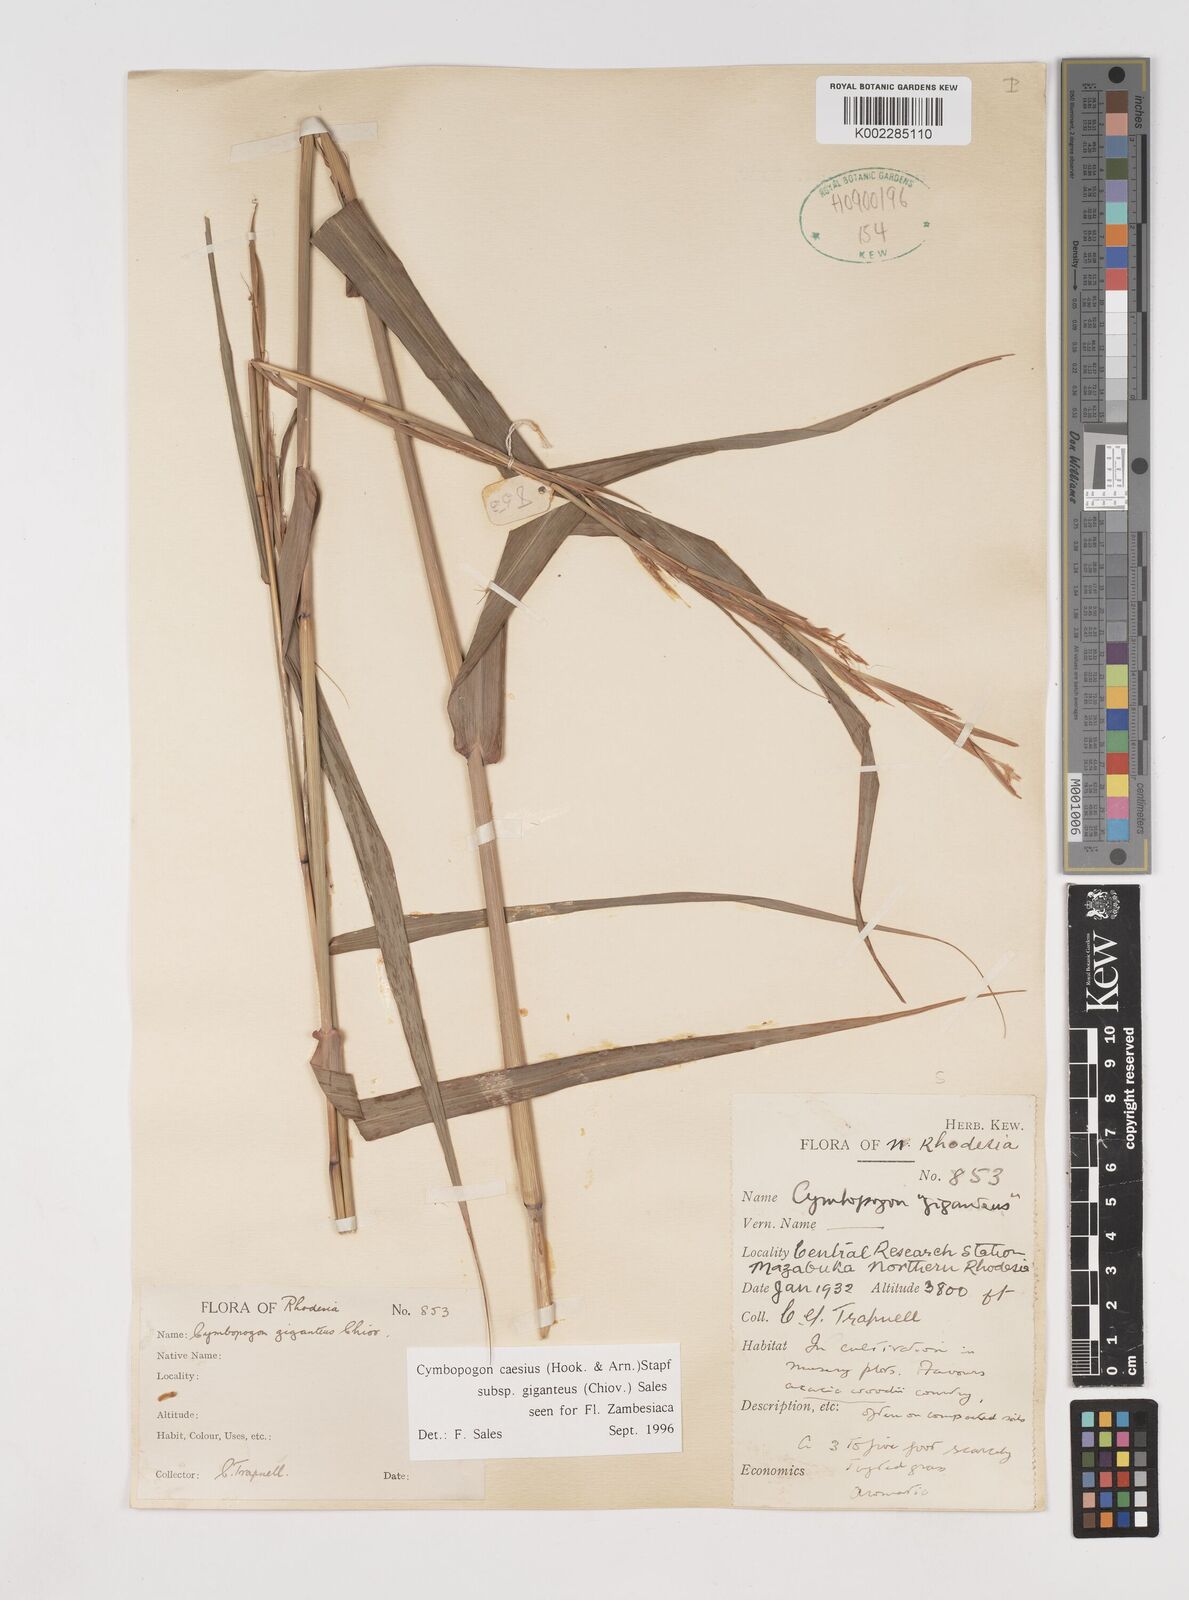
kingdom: Plantae
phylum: Tracheophyta
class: Liliopsida
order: Poales
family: Poaceae
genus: Cymbopogon
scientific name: Cymbopogon giganteus
